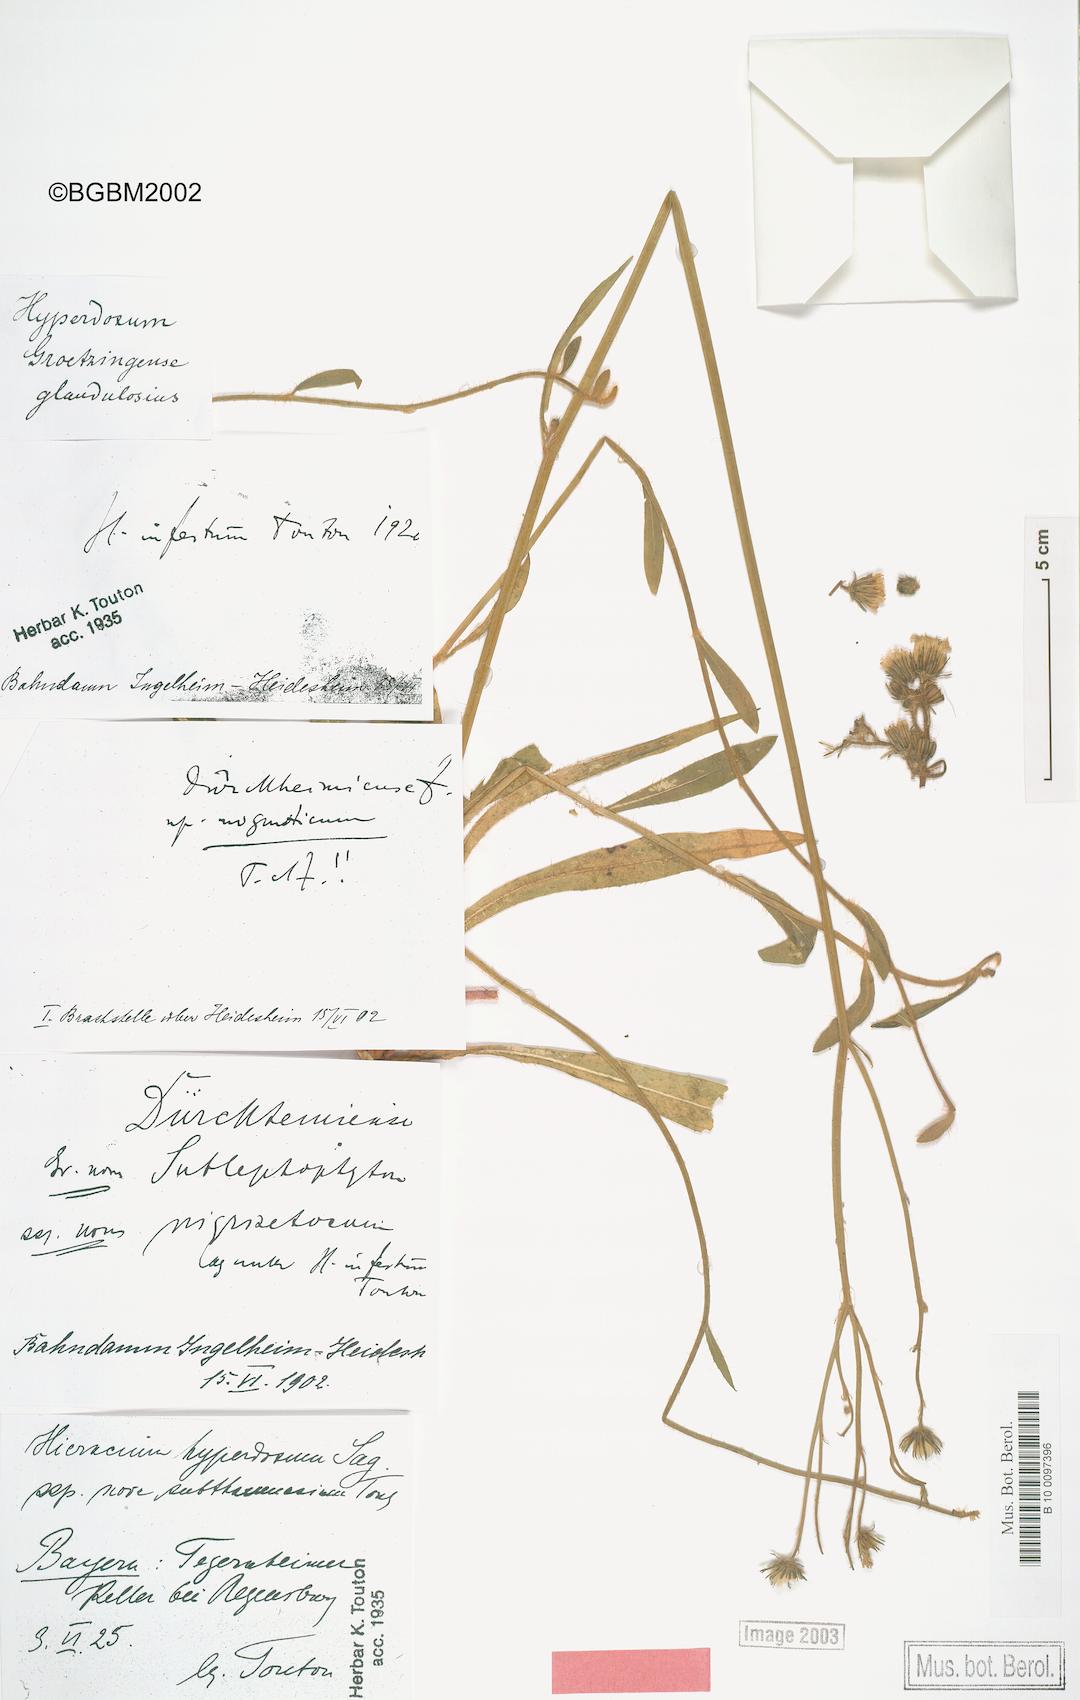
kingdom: Plantae
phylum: Tracheophyta
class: Magnoliopsida
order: Asterales
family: Asteraceae
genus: Pilosella
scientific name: Pilosella visianii
